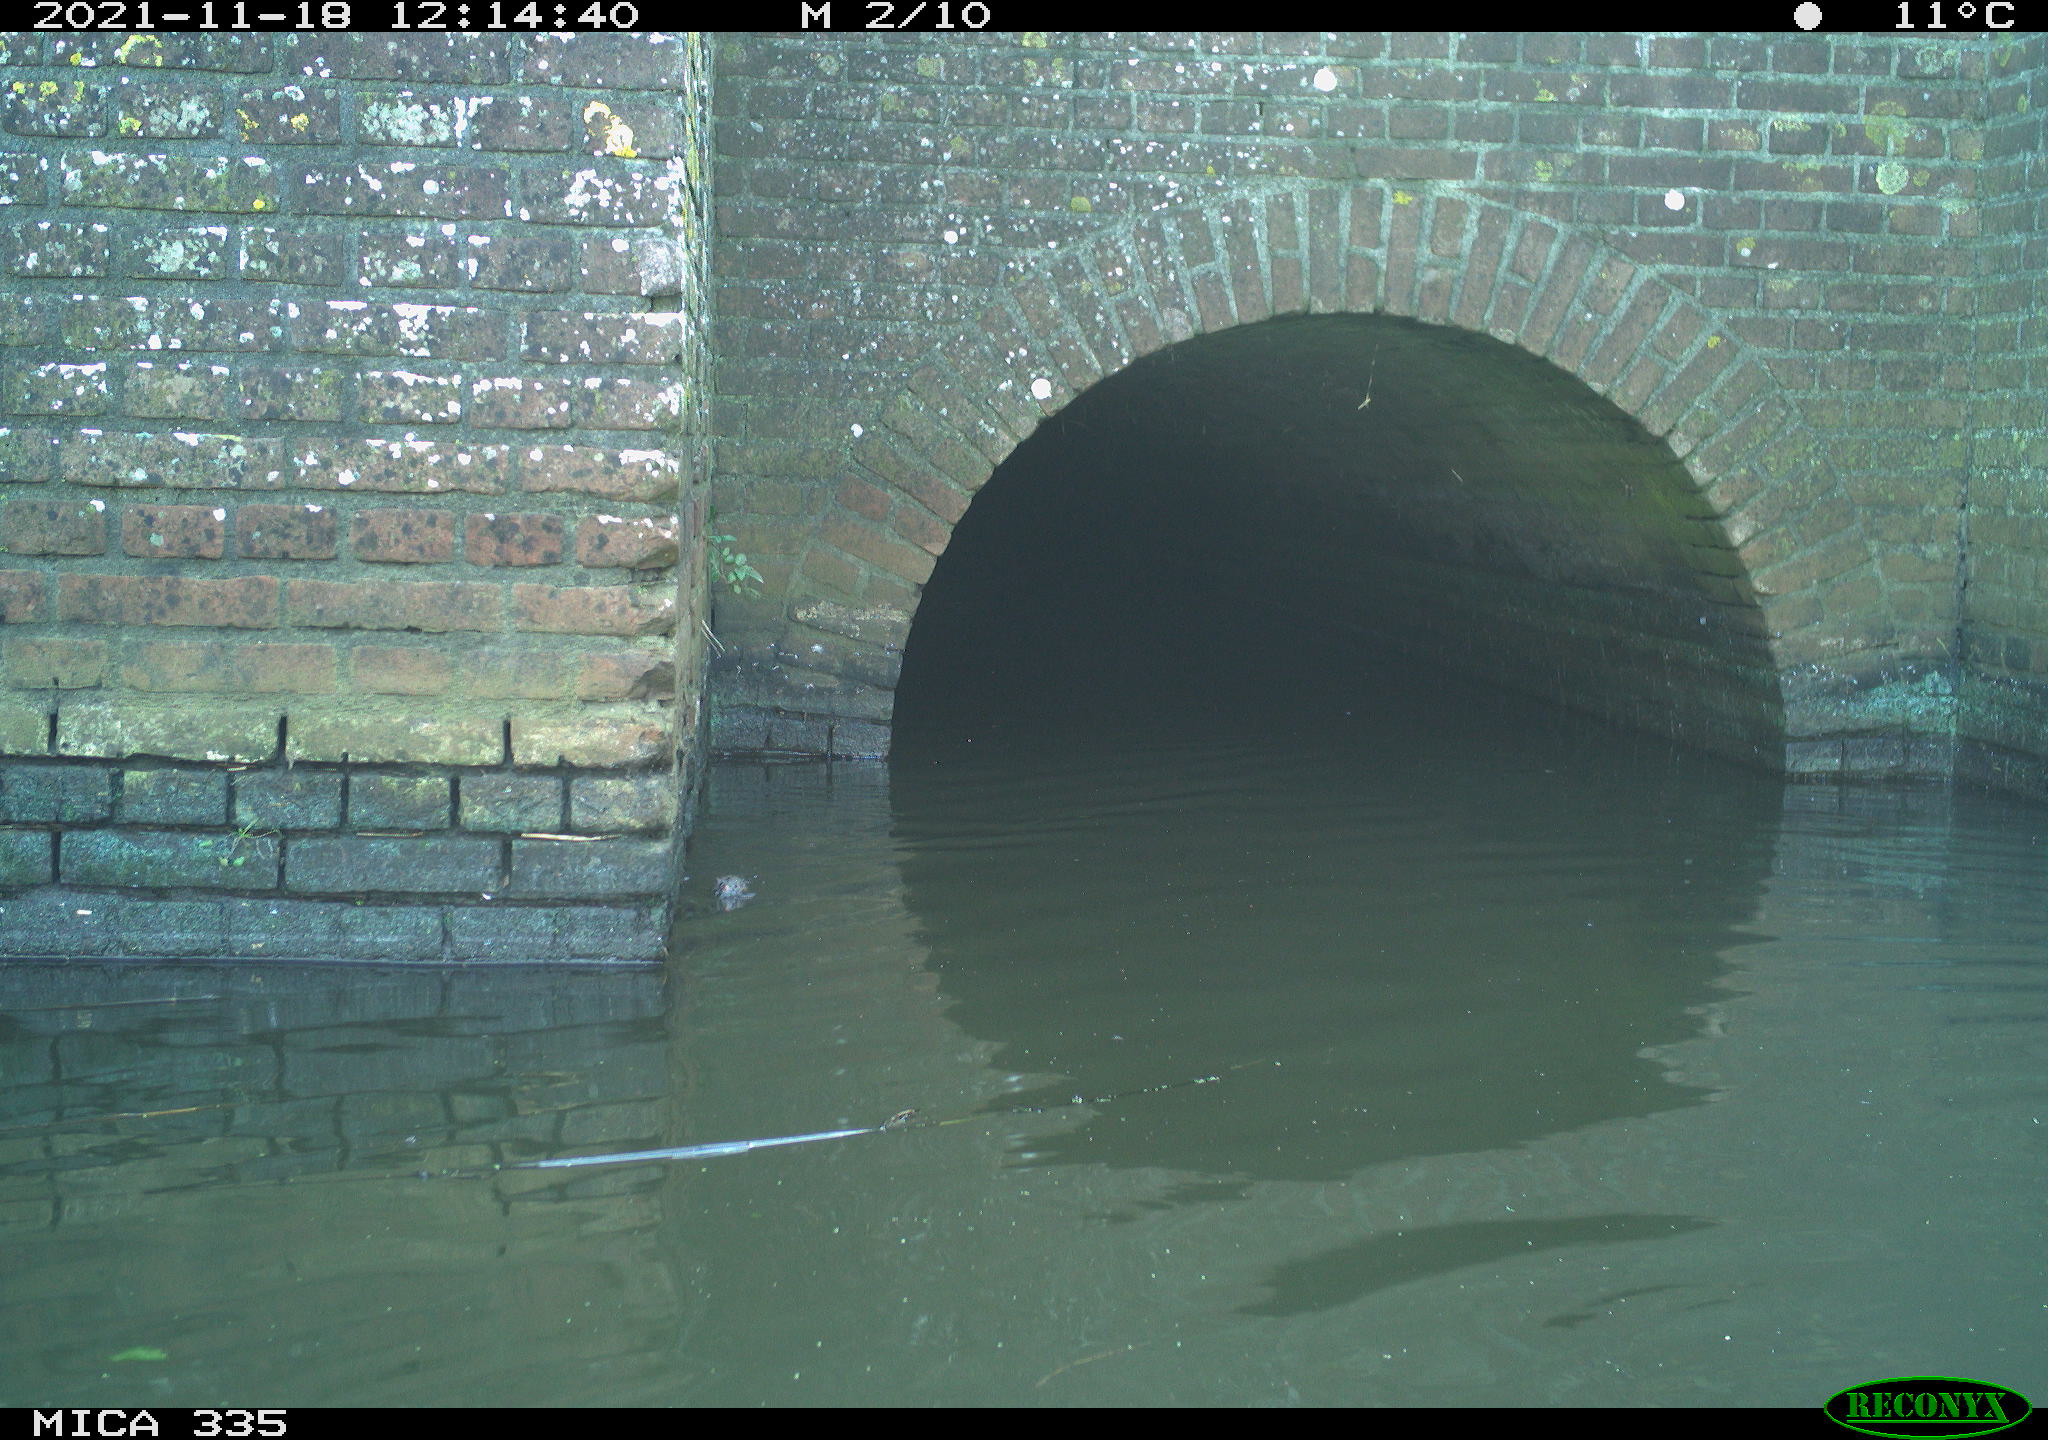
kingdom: Animalia
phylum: Chordata
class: Mammalia
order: Rodentia
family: Muridae
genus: Rattus
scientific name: Rattus norvegicus
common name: Brown rat
